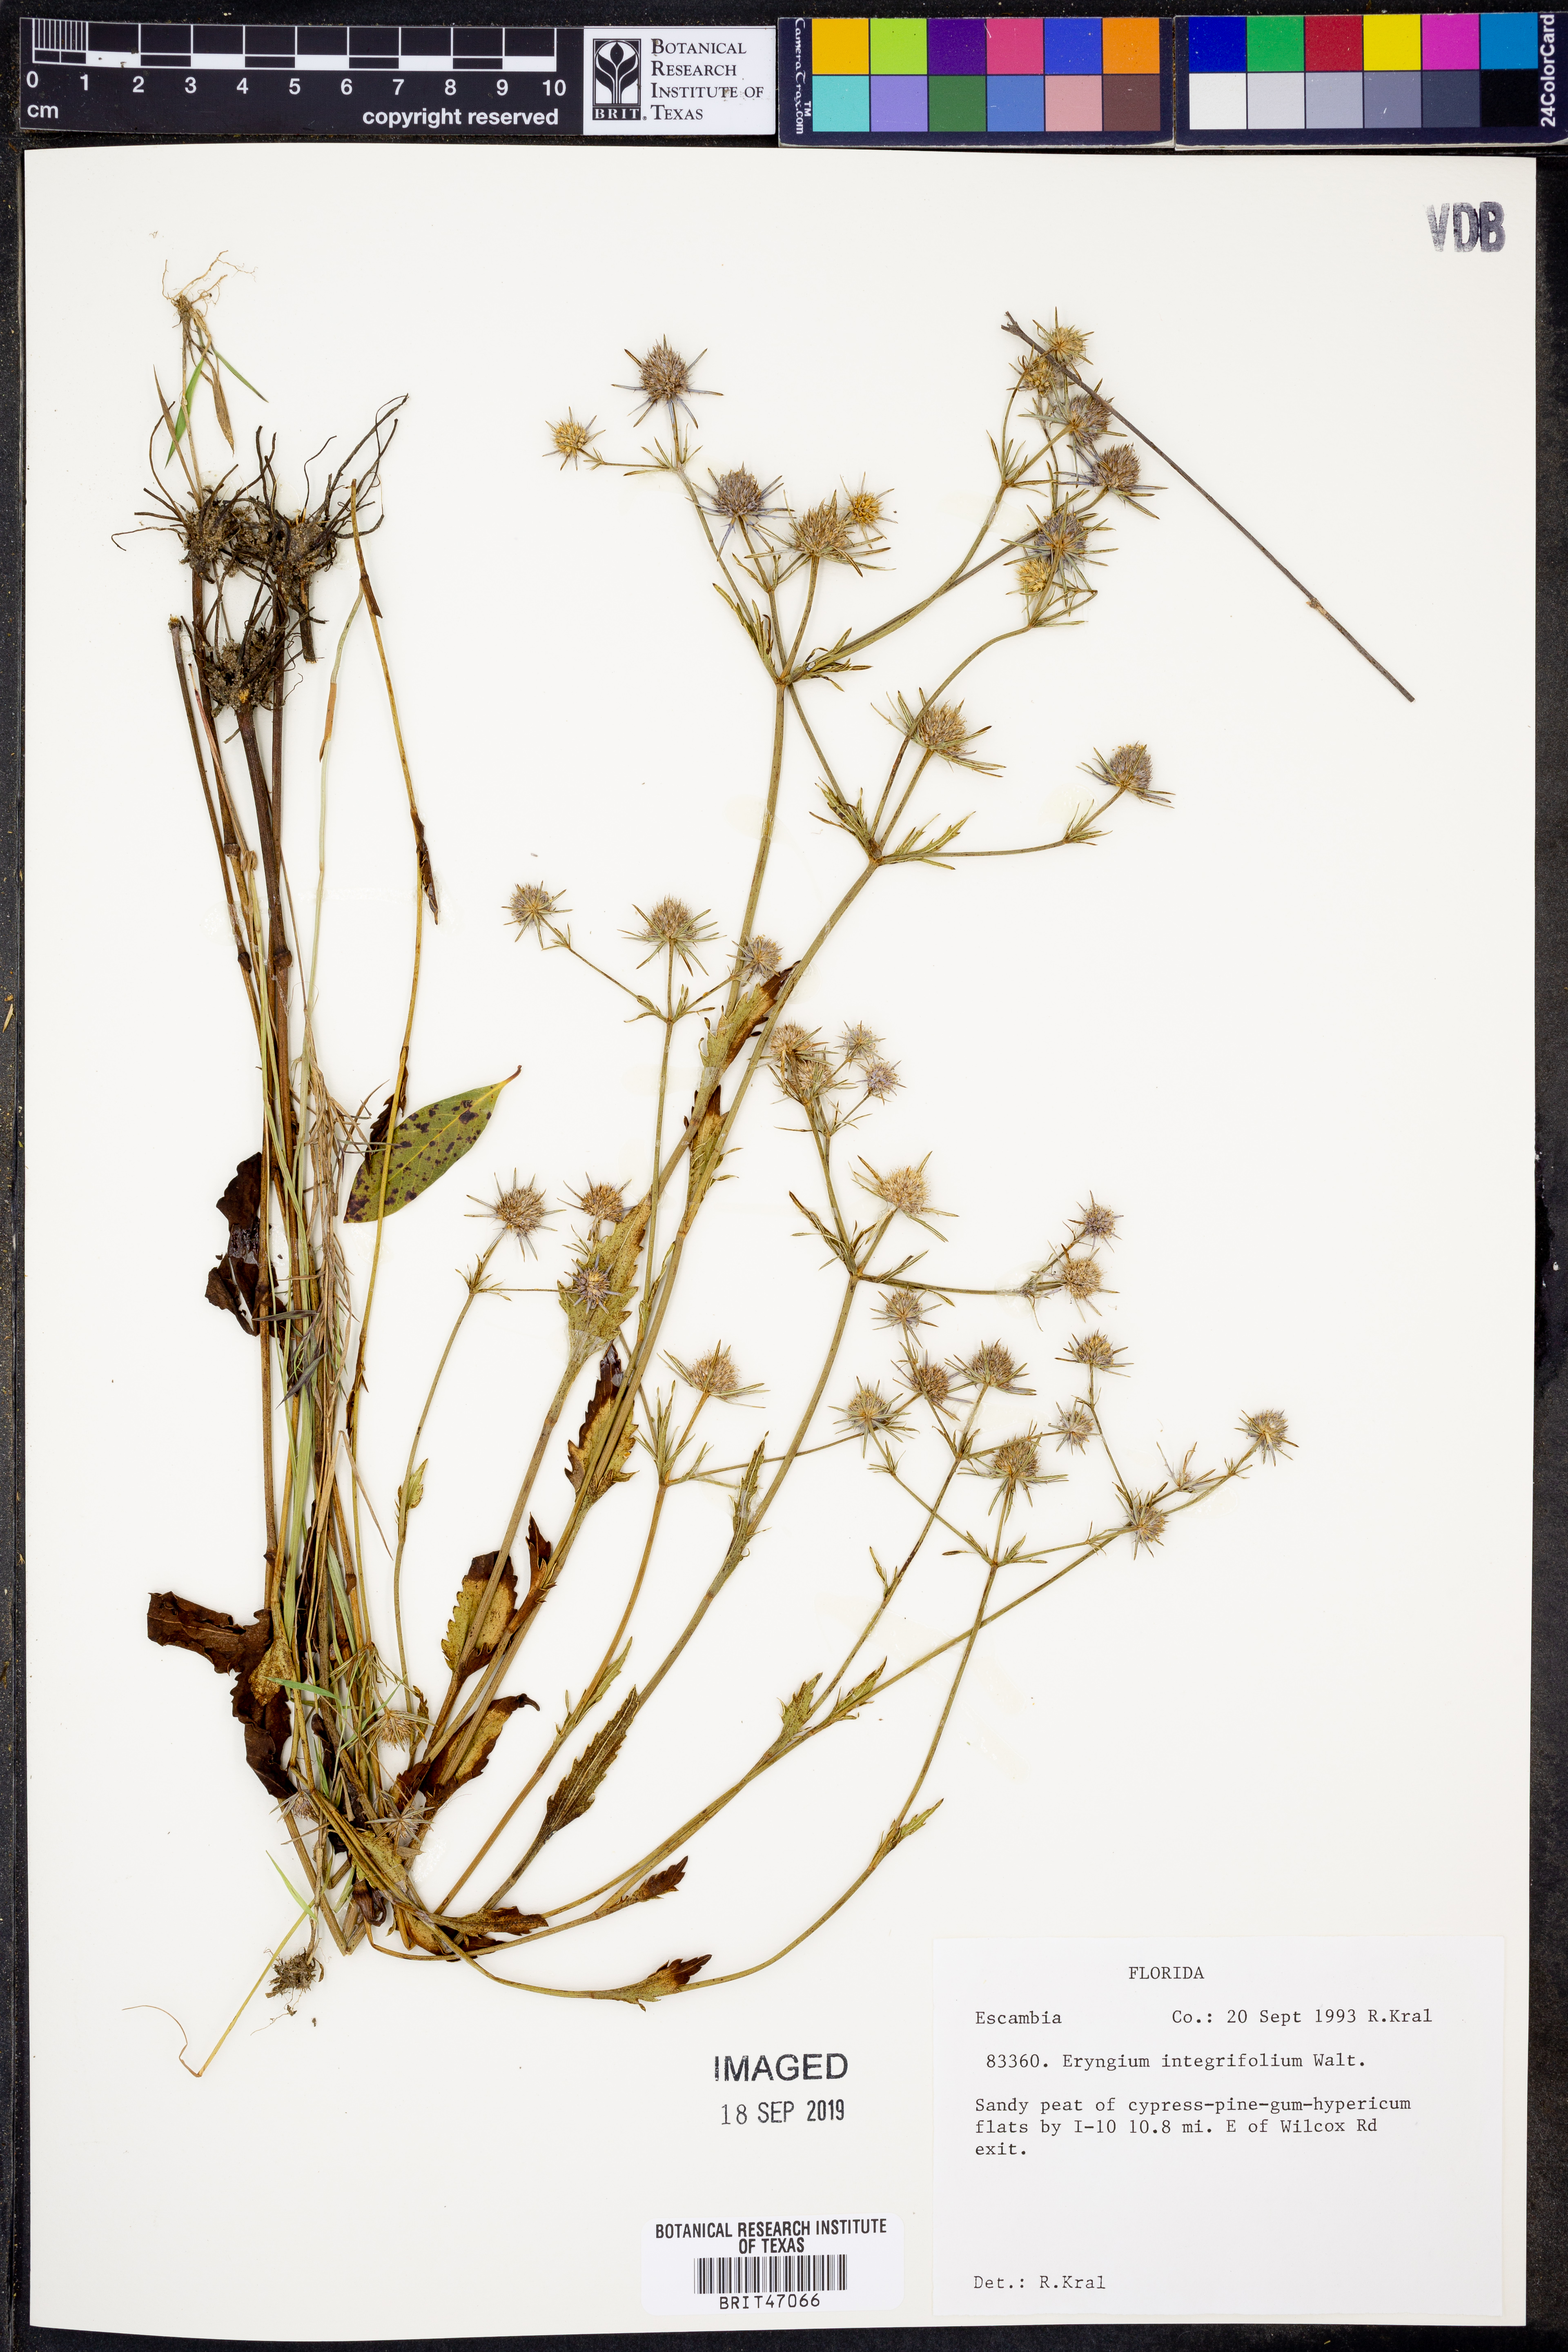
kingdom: Plantae
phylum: Tracheophyta
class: Magnoliopsida
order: Apiales
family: Apiaceae
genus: Eryngium
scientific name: Eryngium integrifolium
